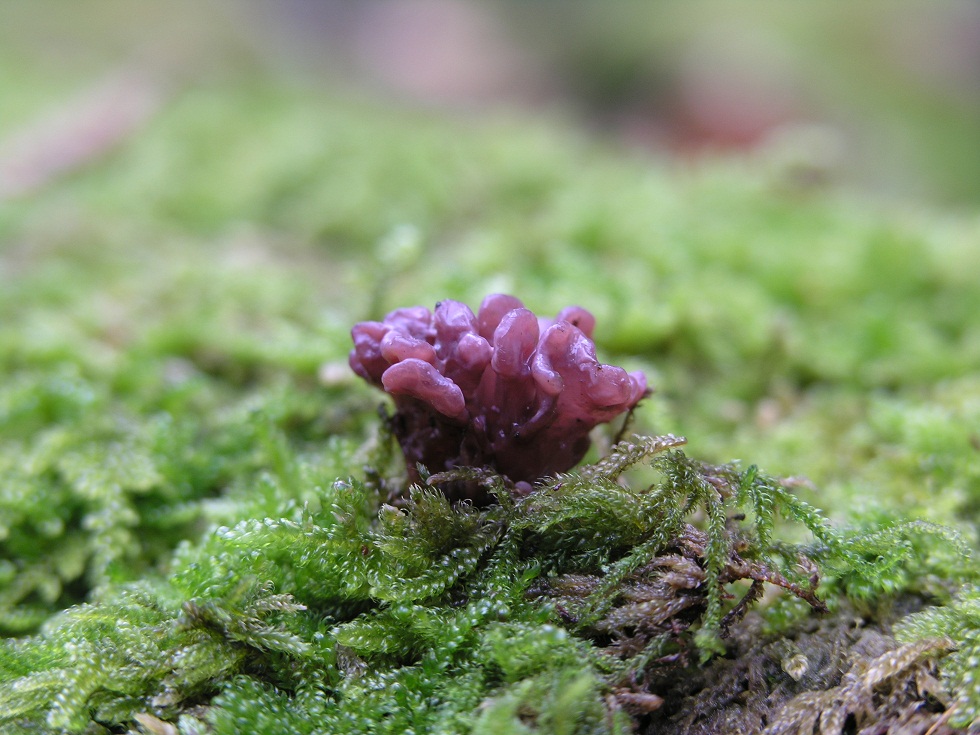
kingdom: Fungi
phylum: Ascomycota
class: Leotiomycetes
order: Helotiales
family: Gelatinodiscaceae
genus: Ascocoryne
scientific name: Ascocoryne sarcoides
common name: rødlilla sejskive
